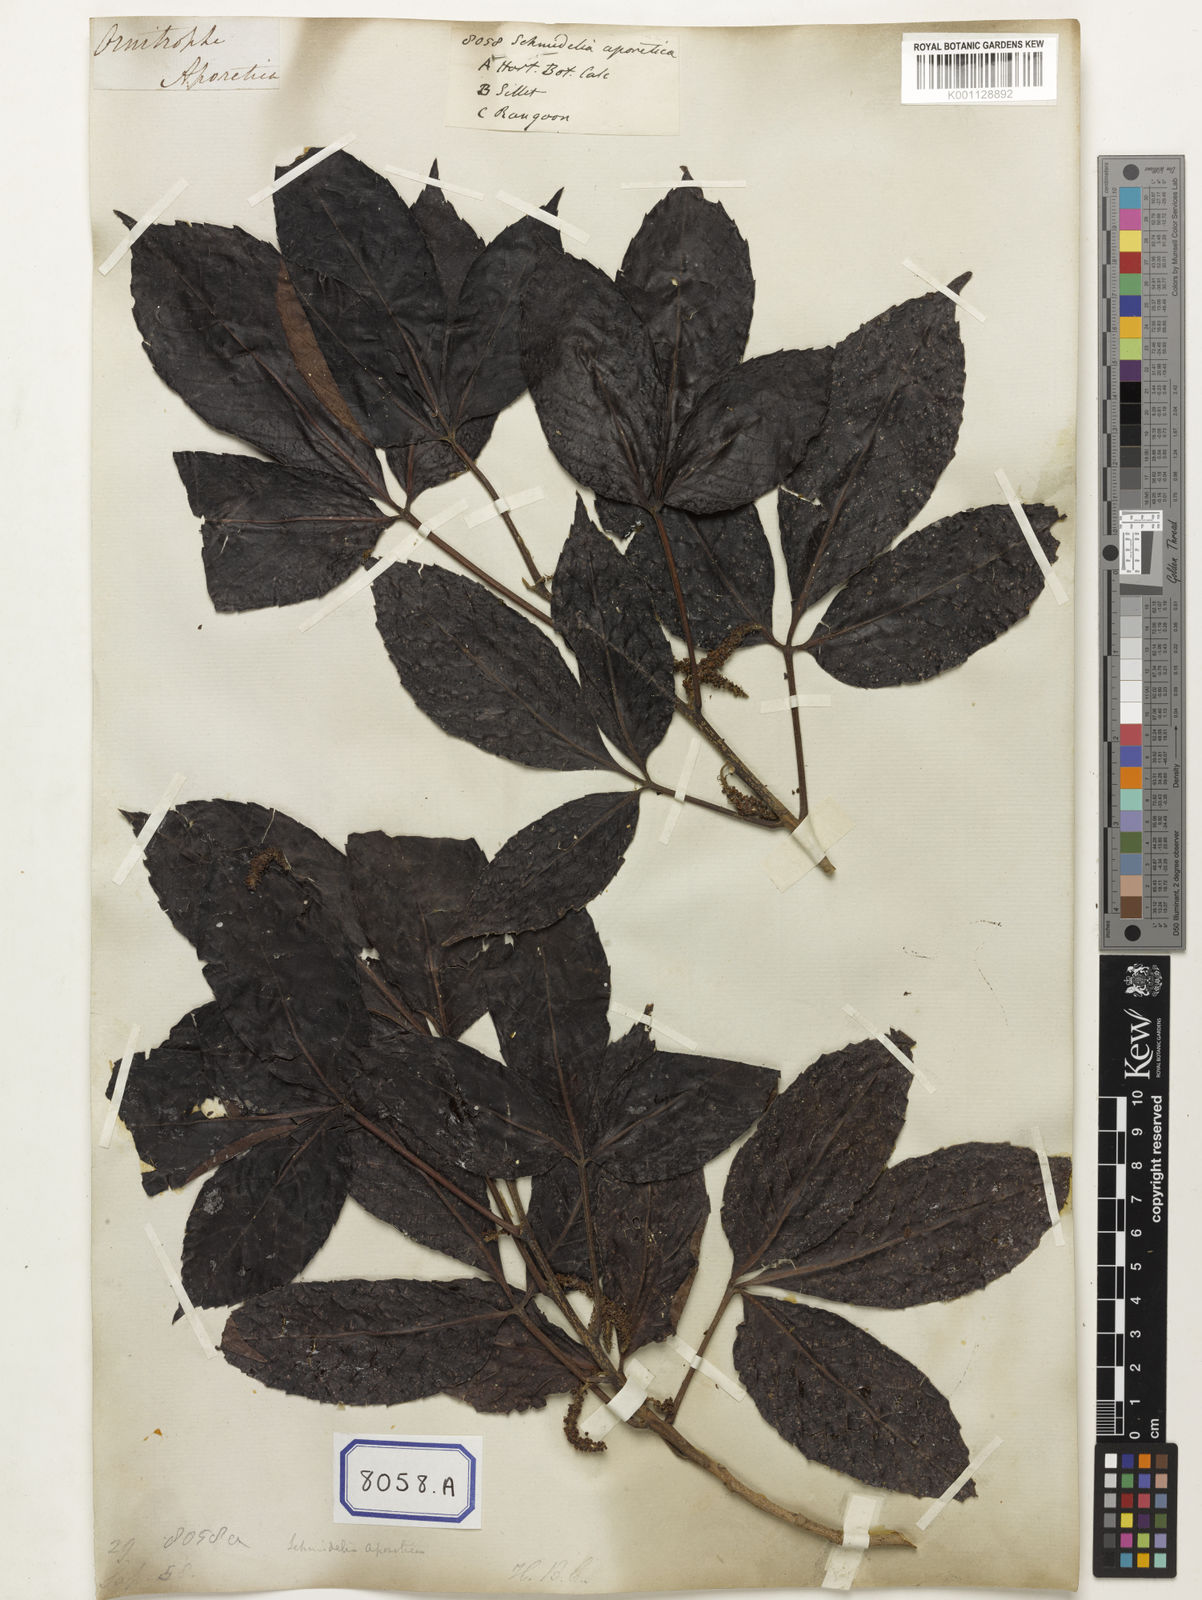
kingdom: Plantae
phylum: Tracheophyta
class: Magnoliopsida
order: Malpighiales
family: Calophyllaceae
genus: Calophyllum
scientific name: Calophyllum
